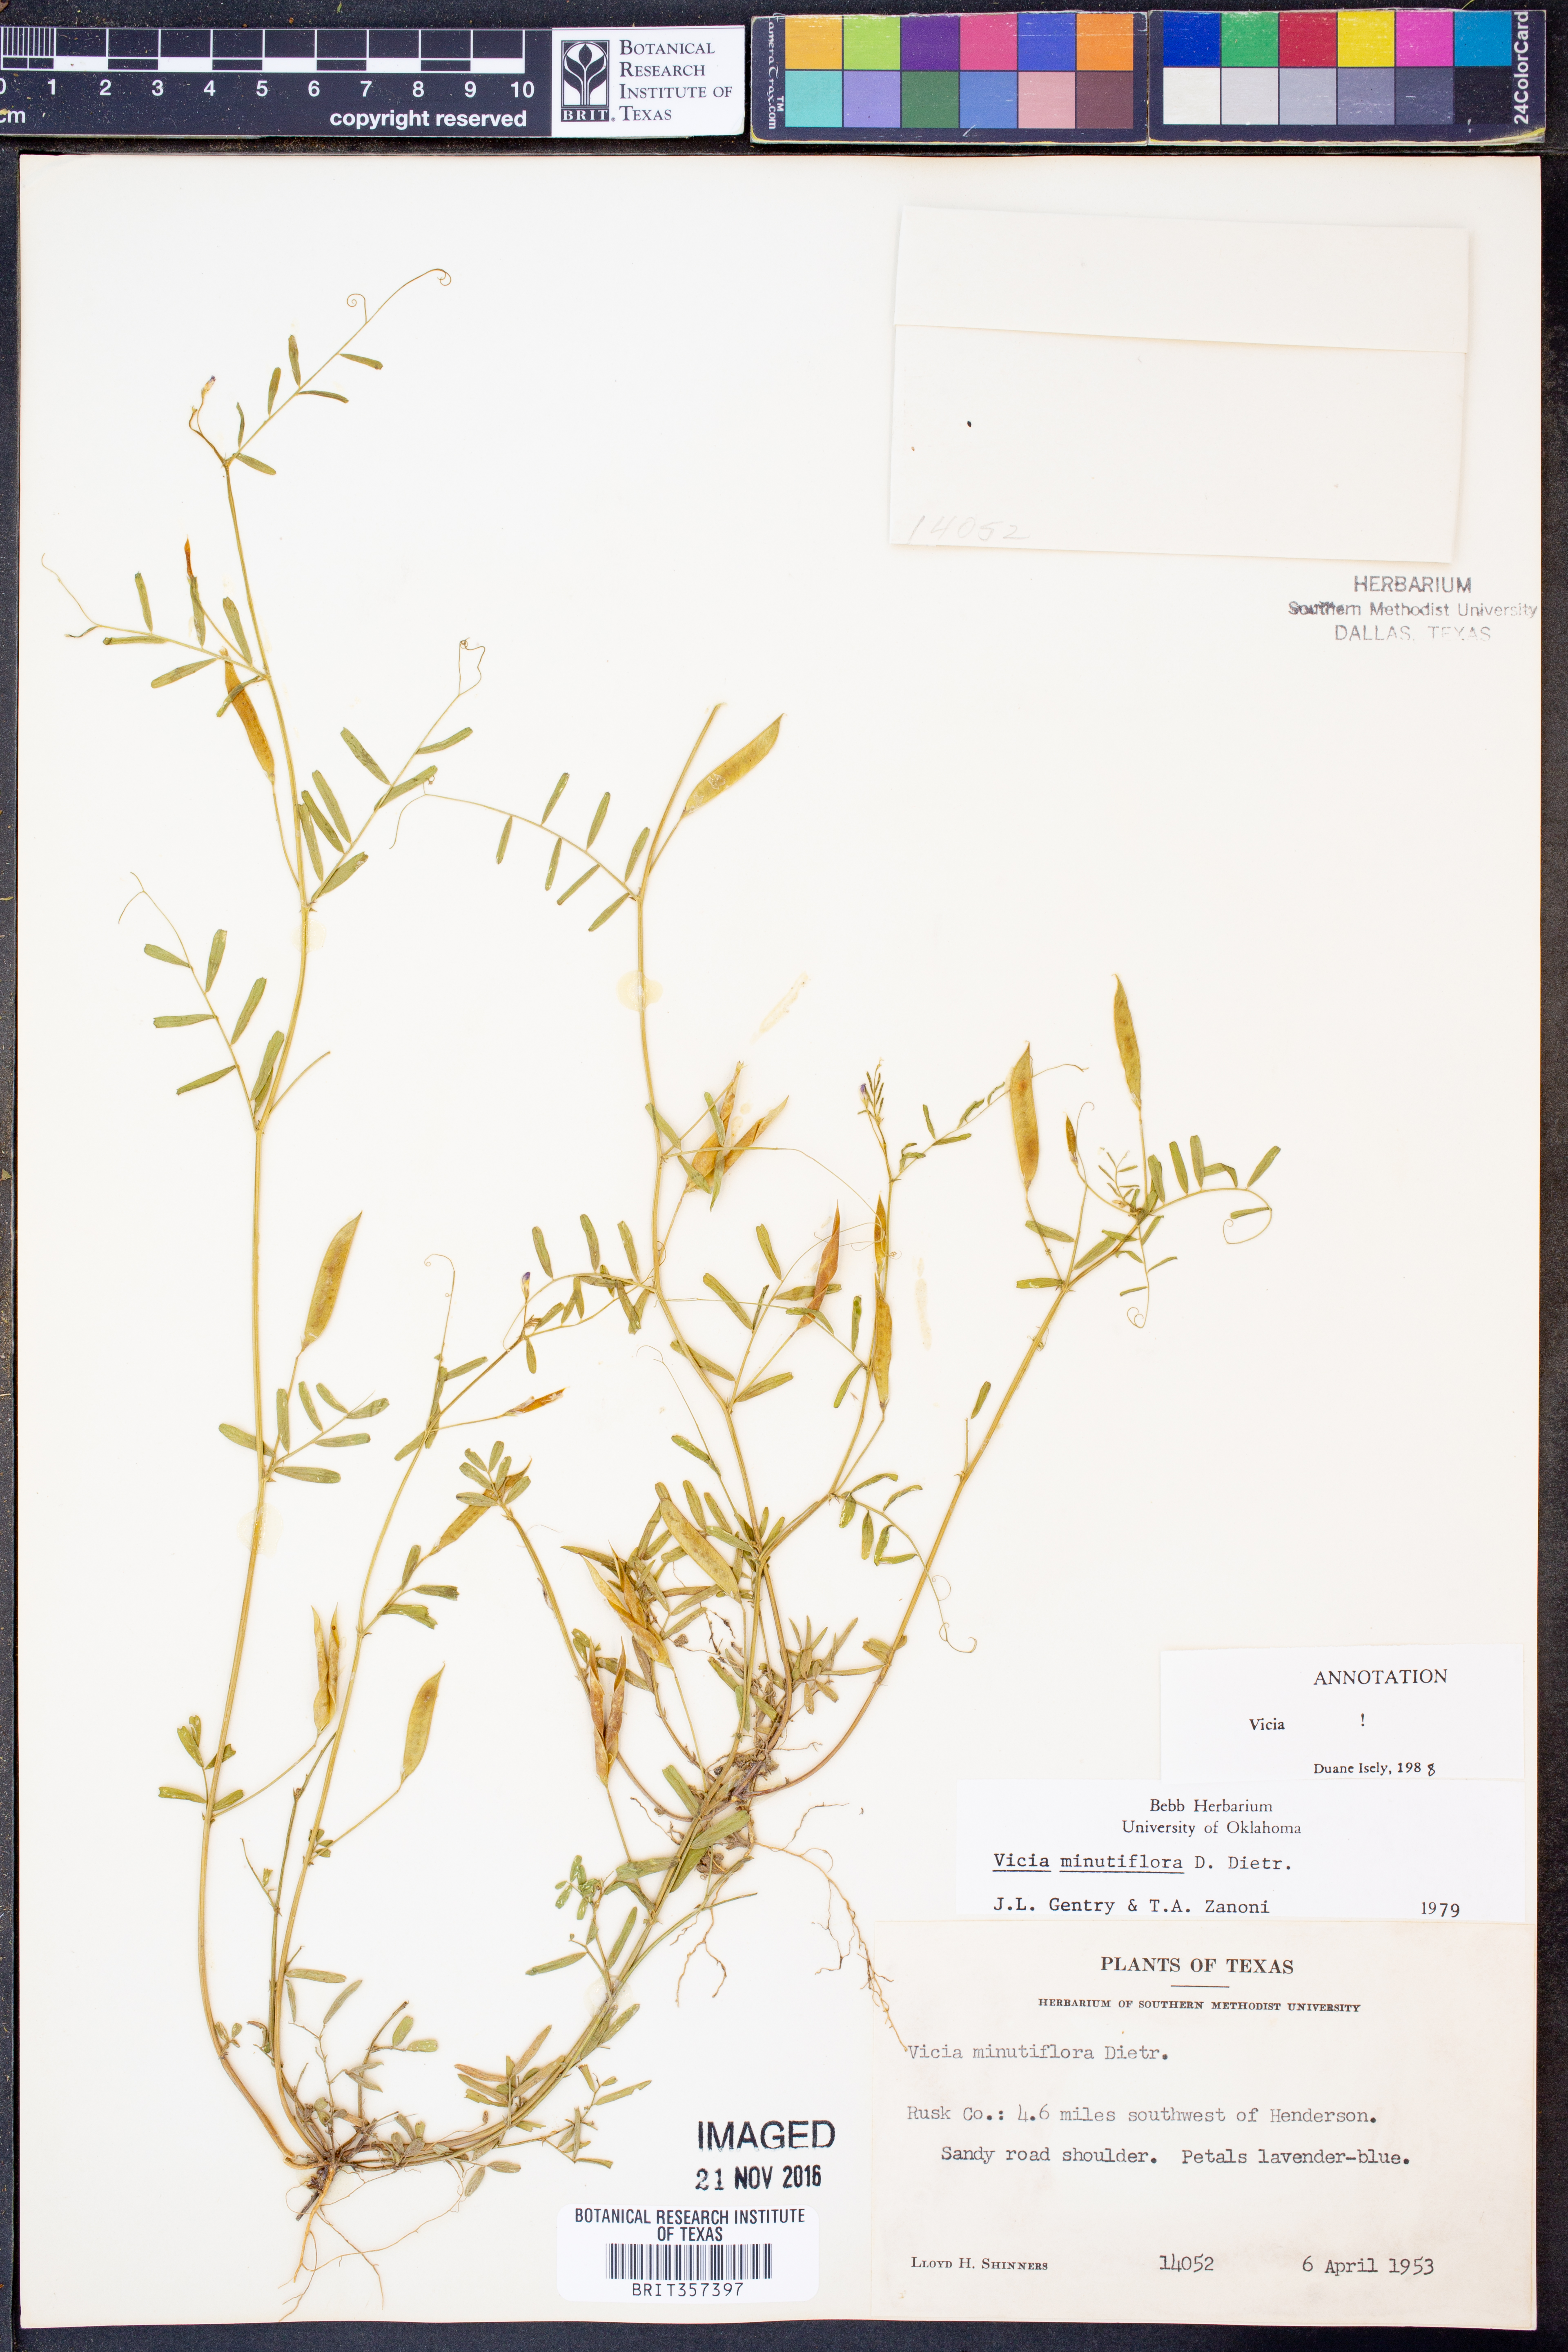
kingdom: Plantae
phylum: Tracheophyta
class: Magnoliopsida
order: Fabales
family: Fabaceae
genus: Vicia
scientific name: Vicia
